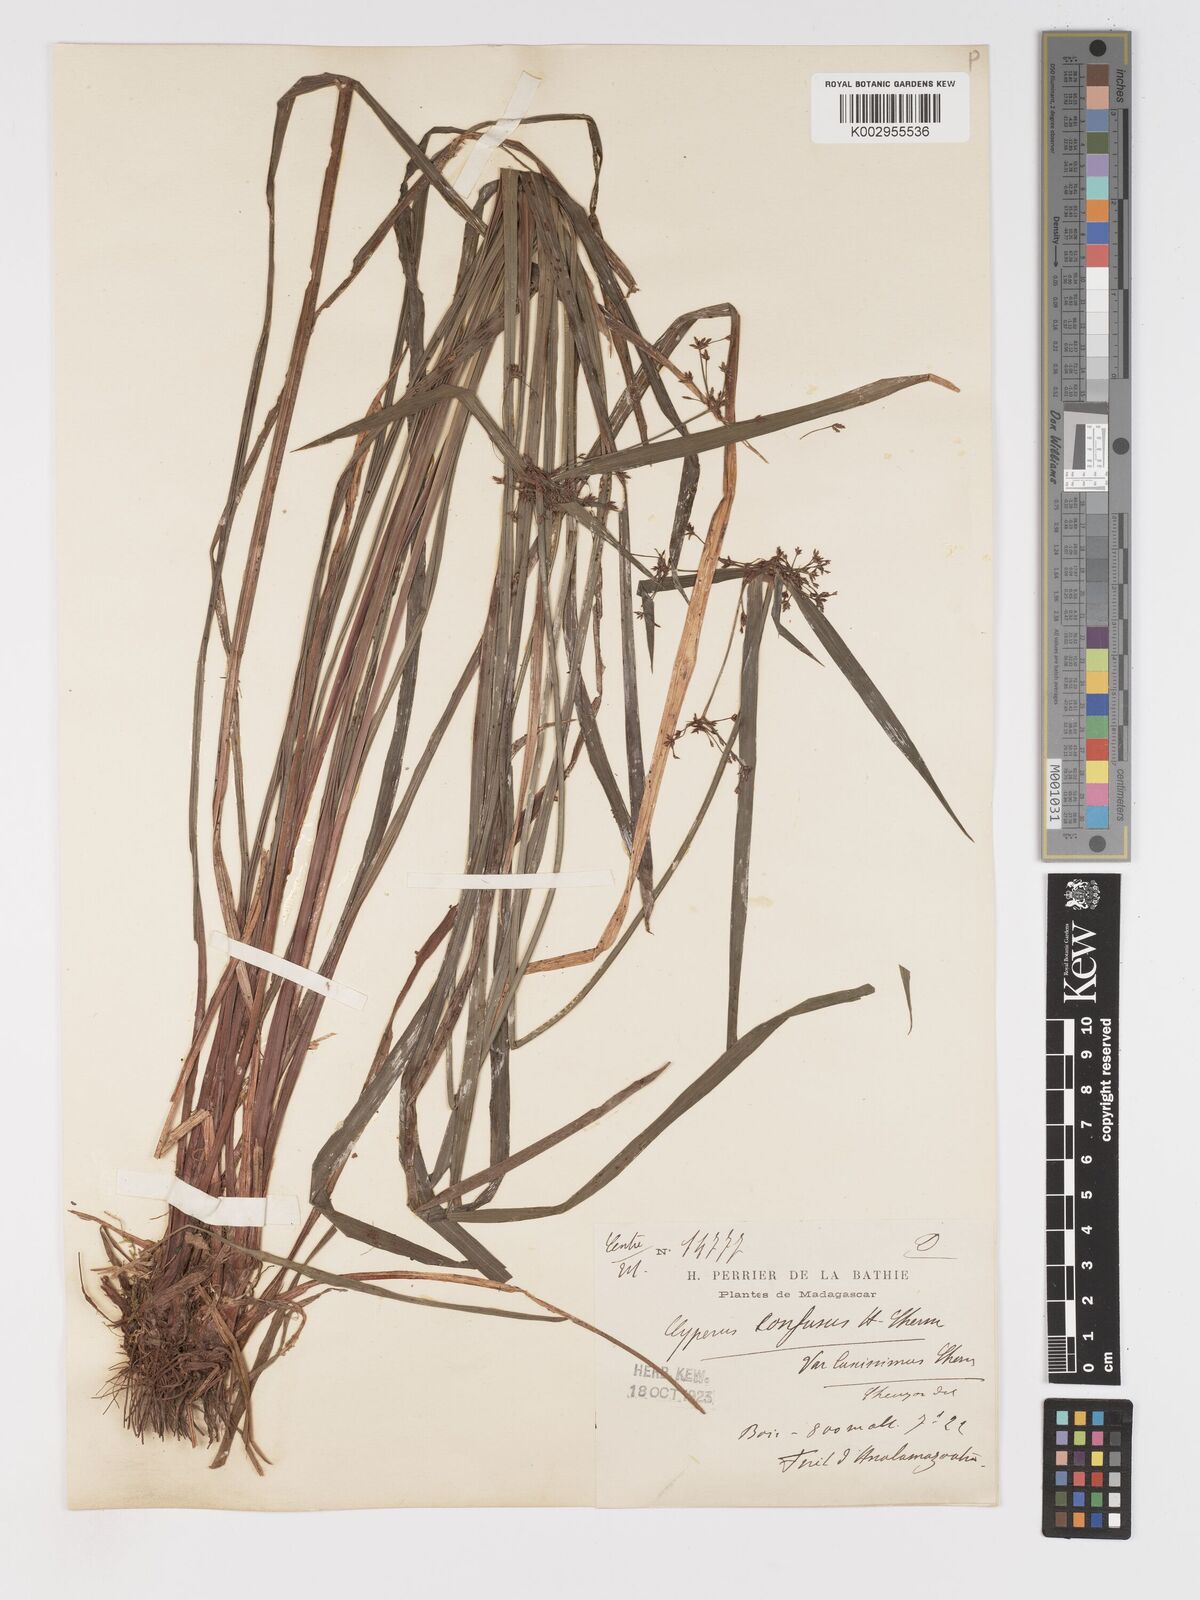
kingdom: Plantae
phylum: Tracheophyta
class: Liliopsida
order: Poales
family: Cyperaceae
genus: Cyperus
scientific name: Cyperus longifolius
